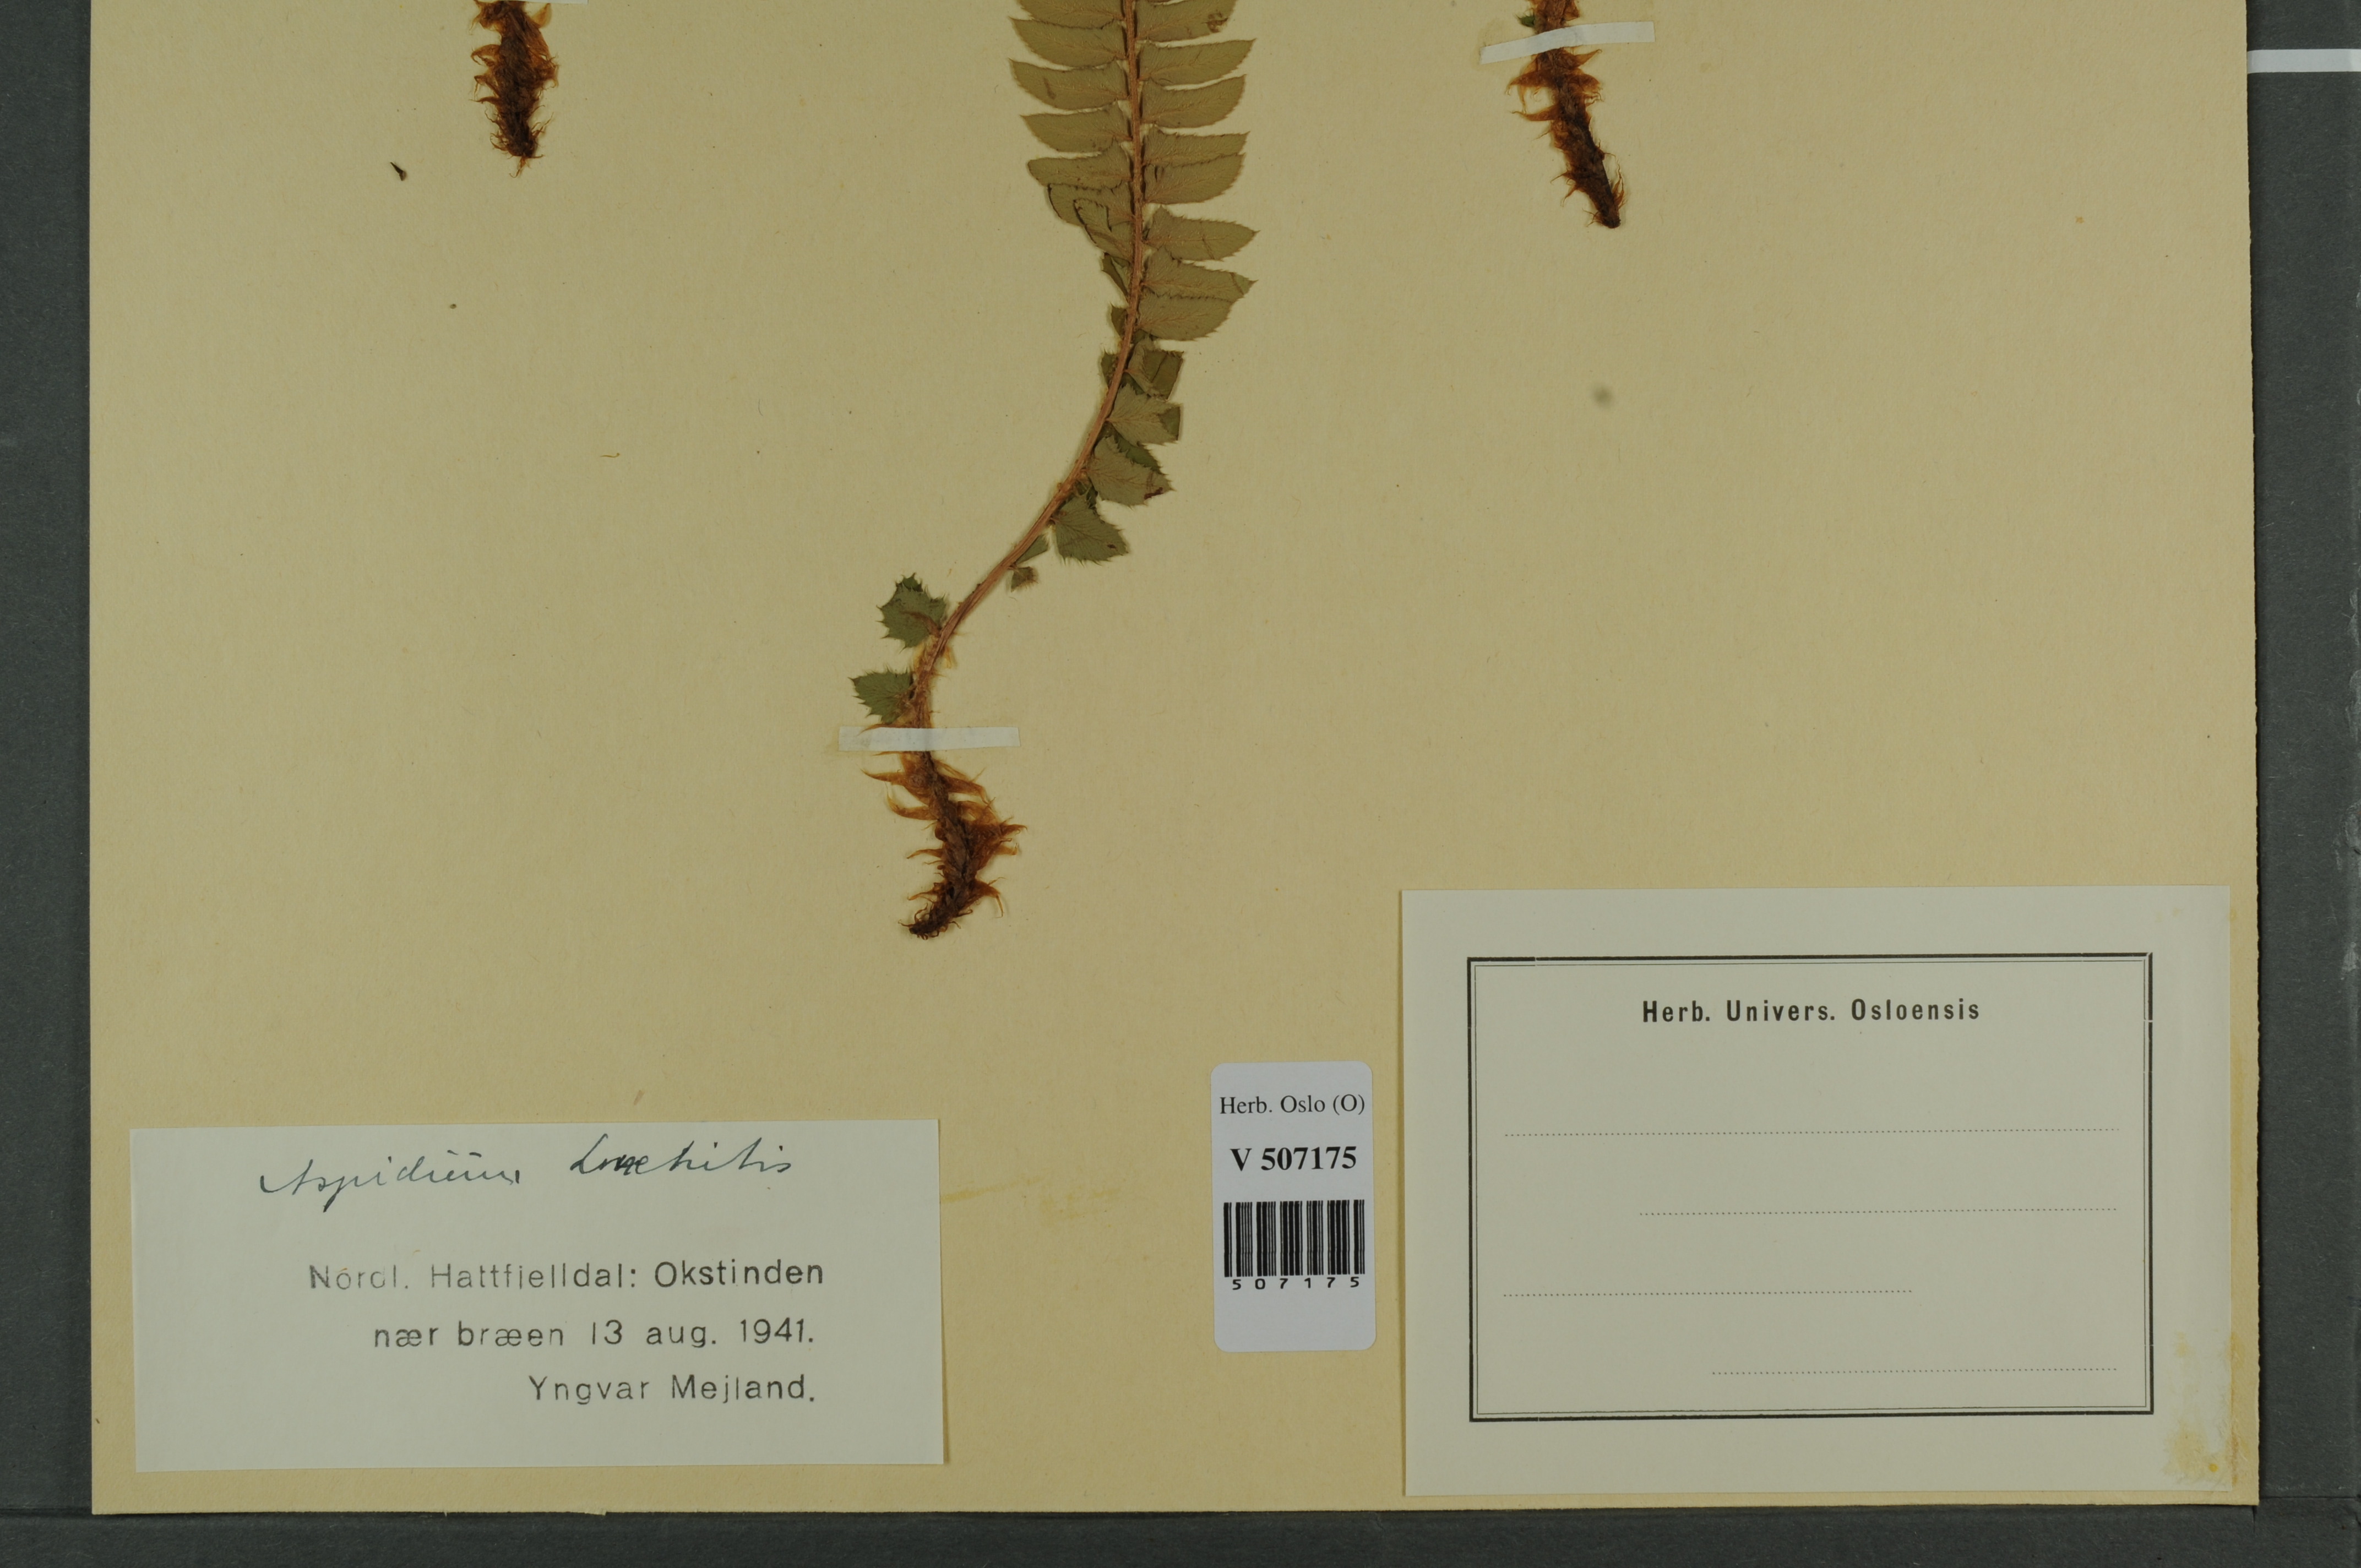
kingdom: Plantae
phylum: Tracheophyta
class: Polypodiopsida
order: Polypodiales
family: Dryopteridaceae
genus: Polystichum
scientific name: Polystichum lonchitis
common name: Holly fern
